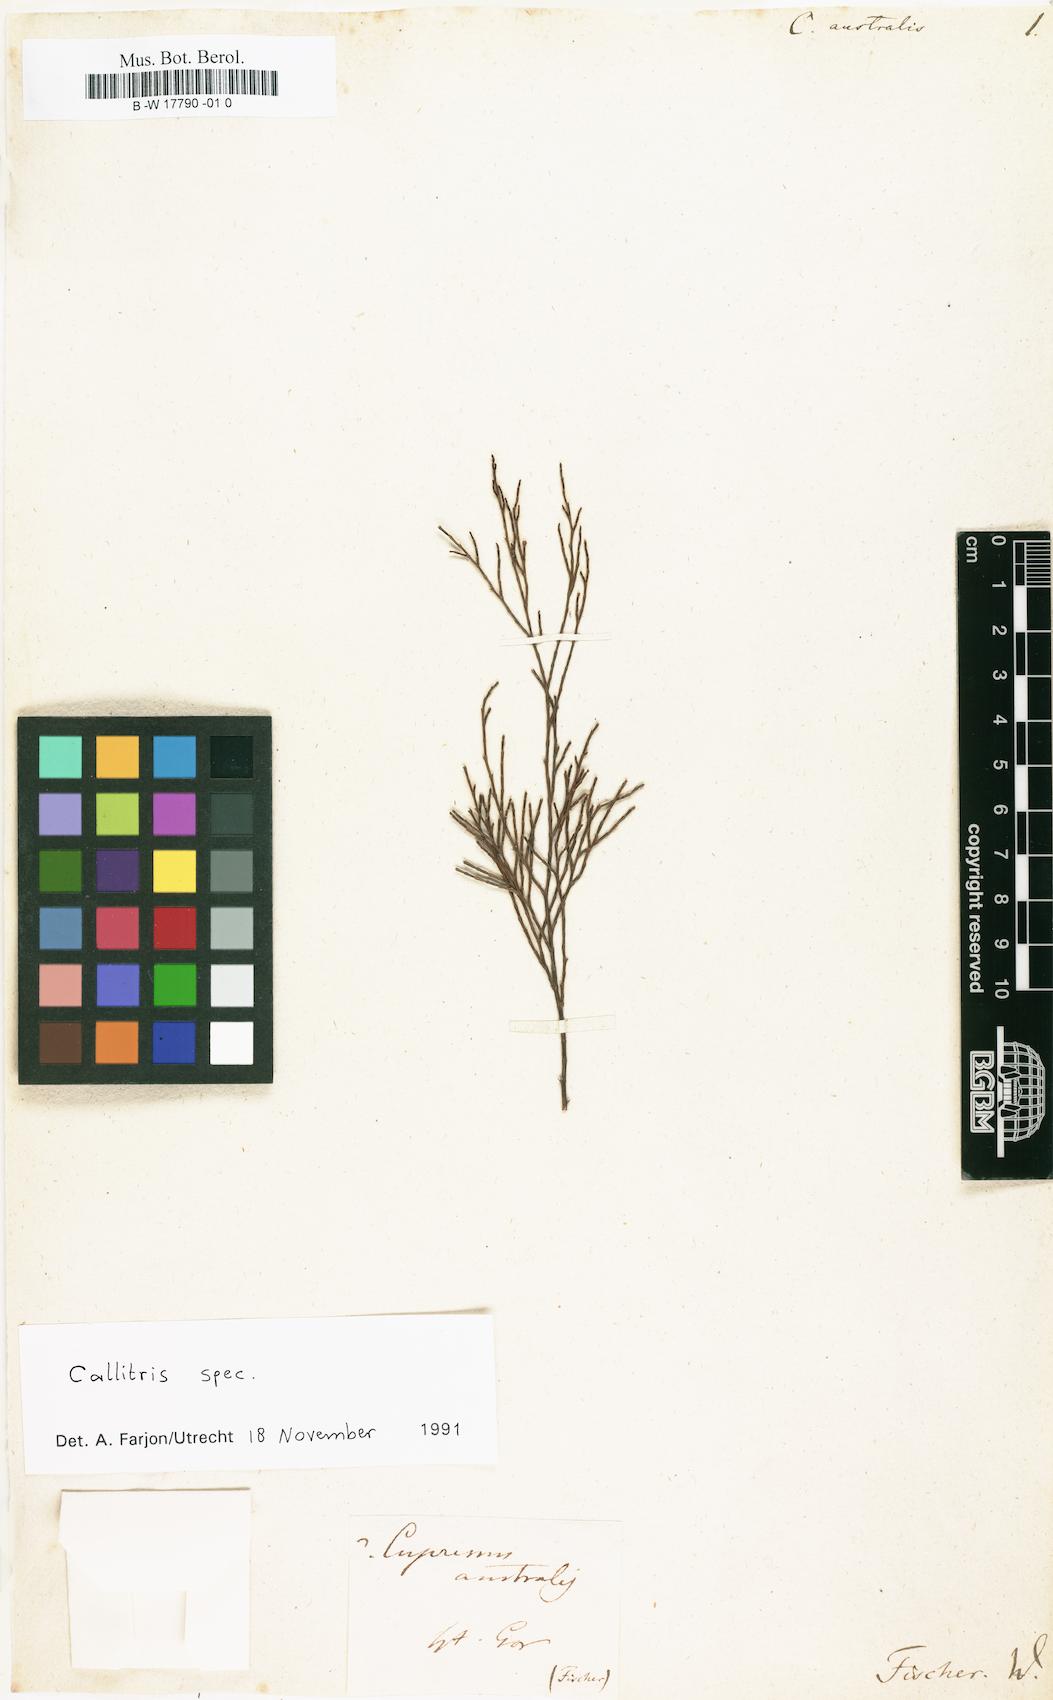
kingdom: Plantae
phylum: Tracheophyta
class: Pinopsida
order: Pinales
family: Cupressaceae
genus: Callitris
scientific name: Callitris rhomboidea
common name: Illawara mountain pine
